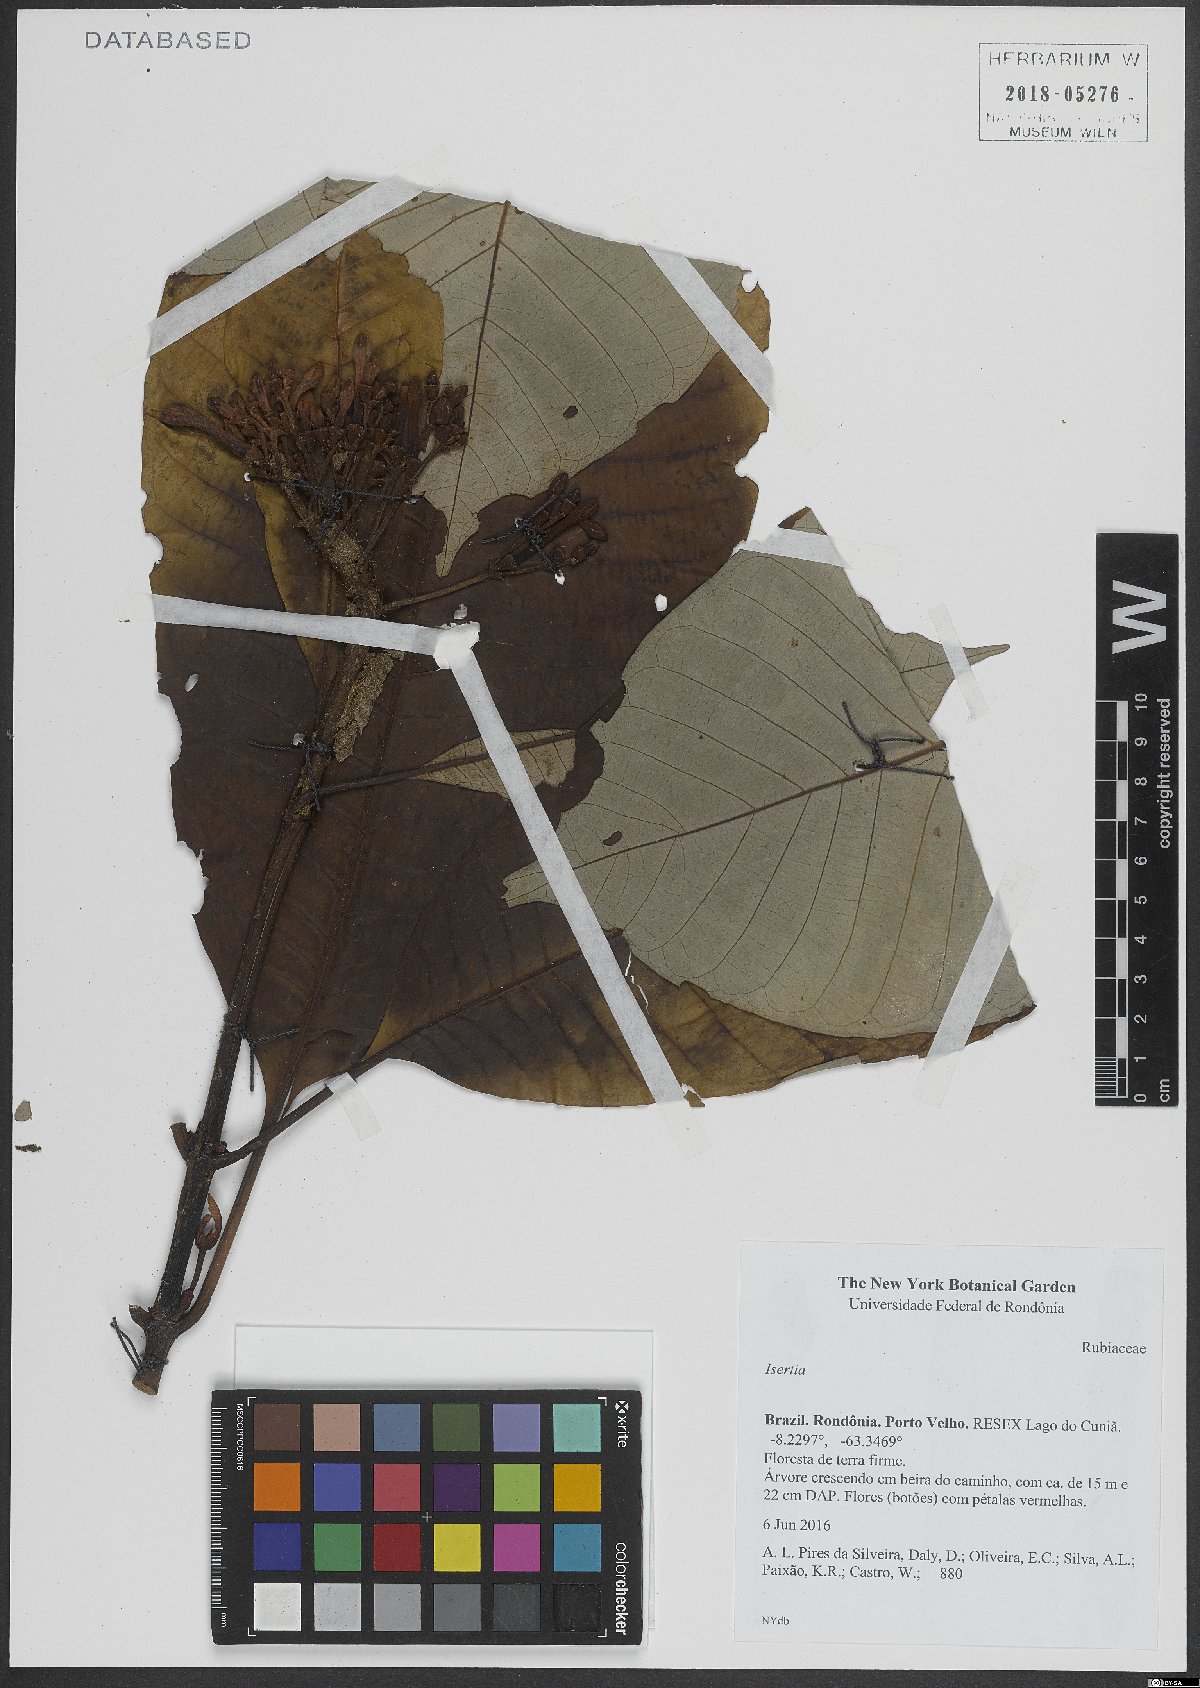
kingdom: Plantae
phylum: Tracheophyta
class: Magnoliopsida
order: Gentianales
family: Rubiaceae
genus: Isertia
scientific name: Isertia
